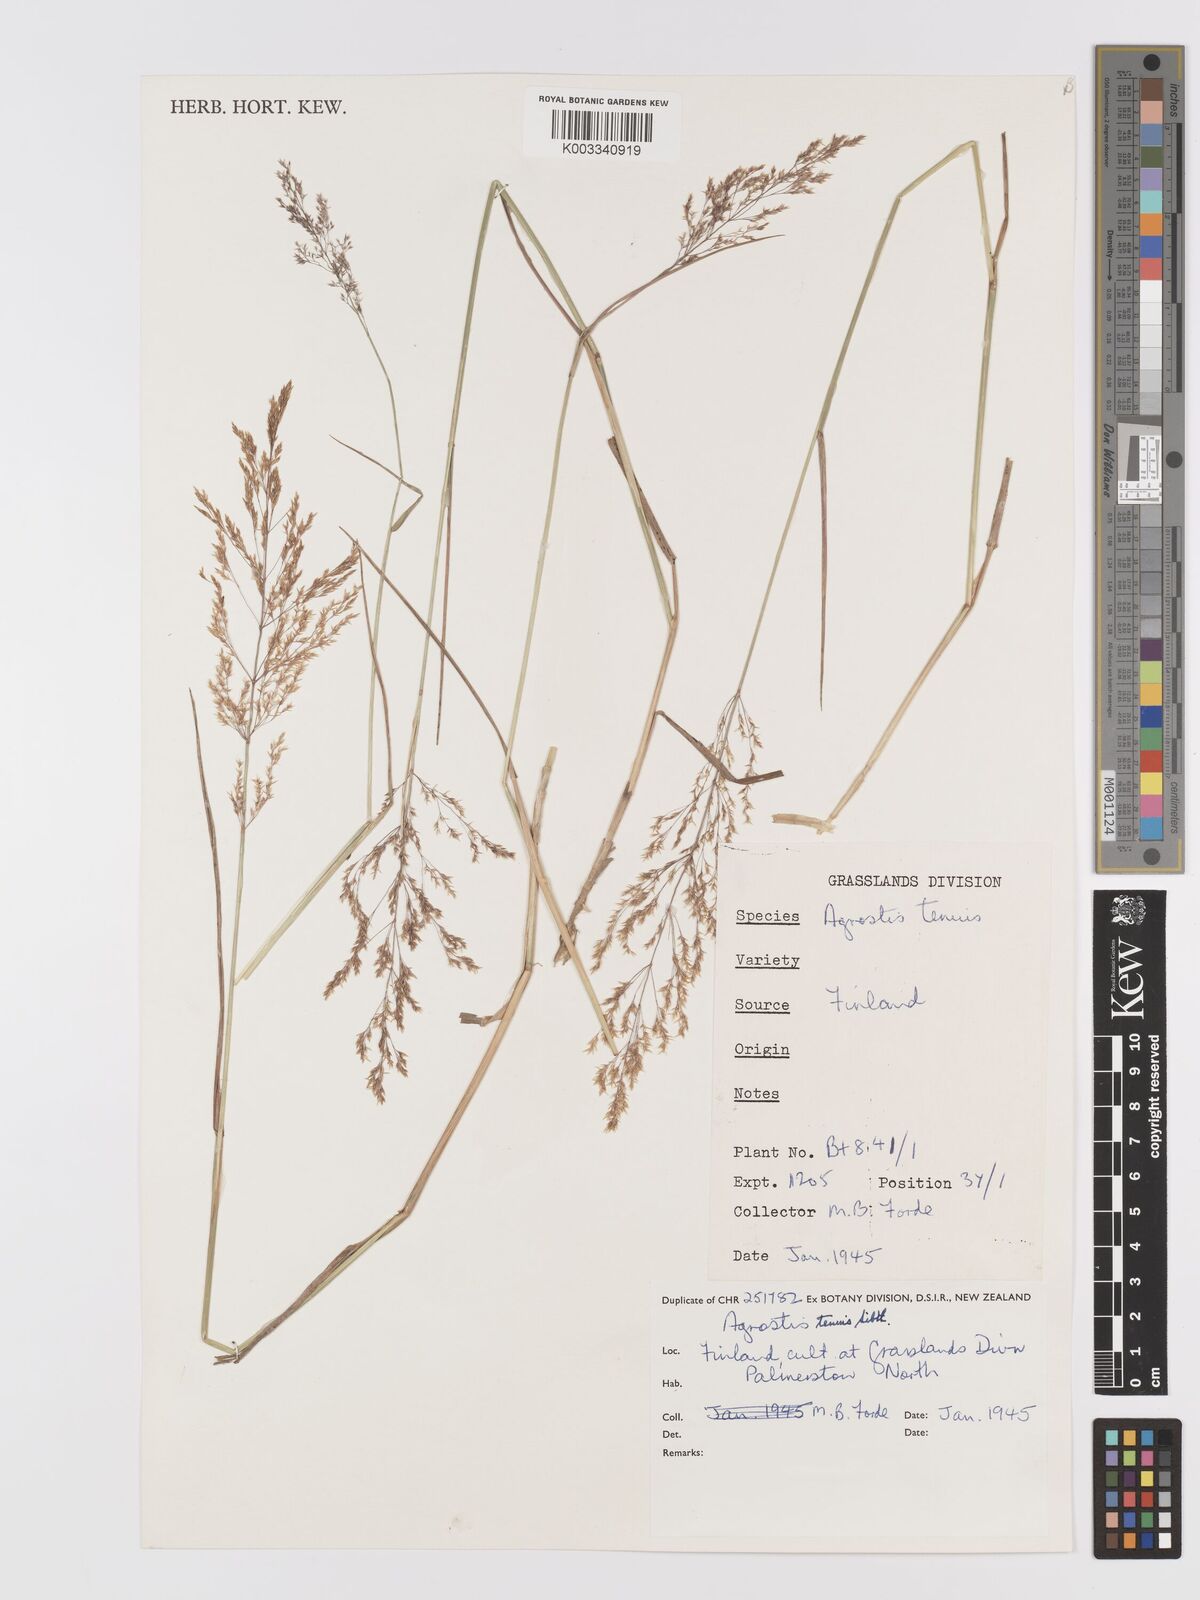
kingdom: Plantae
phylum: Tracheophyta
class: Liliopsida
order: Poales
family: Poaceae
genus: Agrostis
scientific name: Agrostis capillaris
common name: Colonial bentgrass
